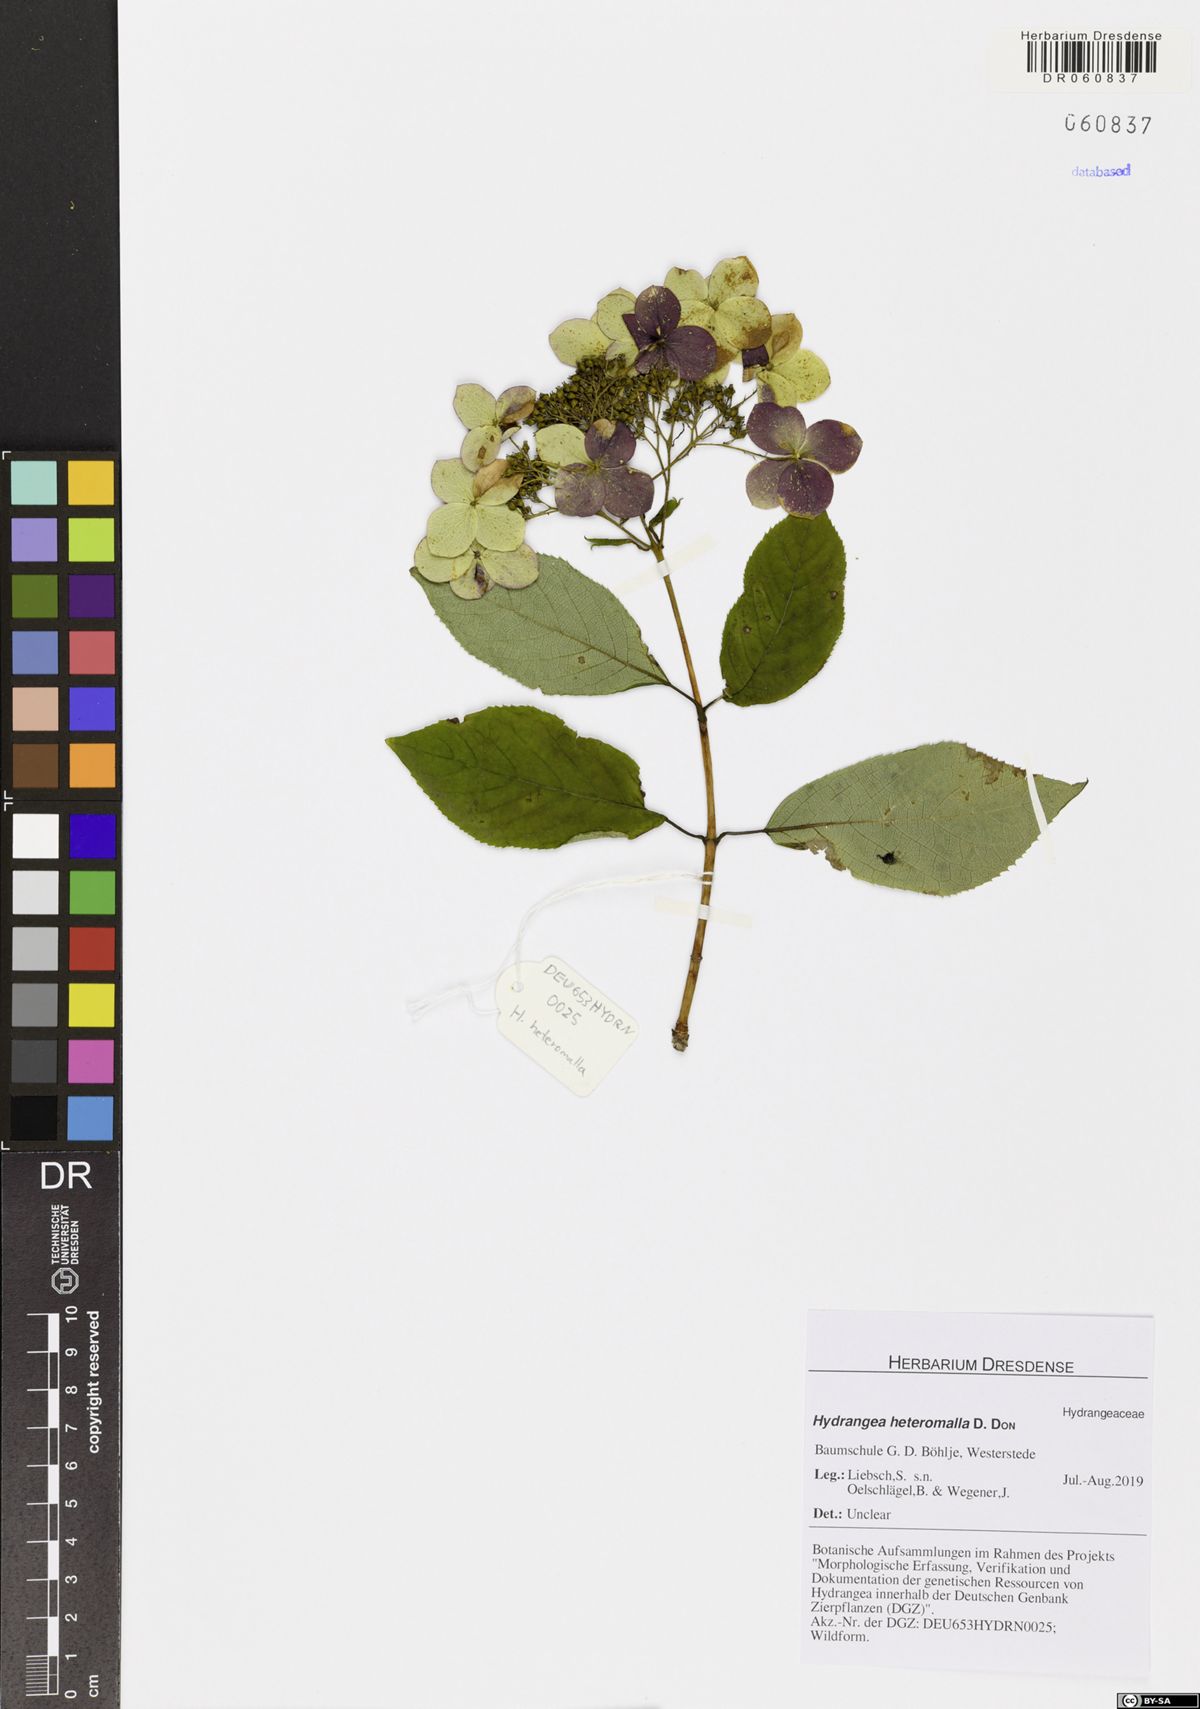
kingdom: Plantae
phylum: Tracheophyta
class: Magnoliopsida
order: Cornales
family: Hydrangeaceae
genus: Hydrangea
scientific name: Hydrangea heteromalla
